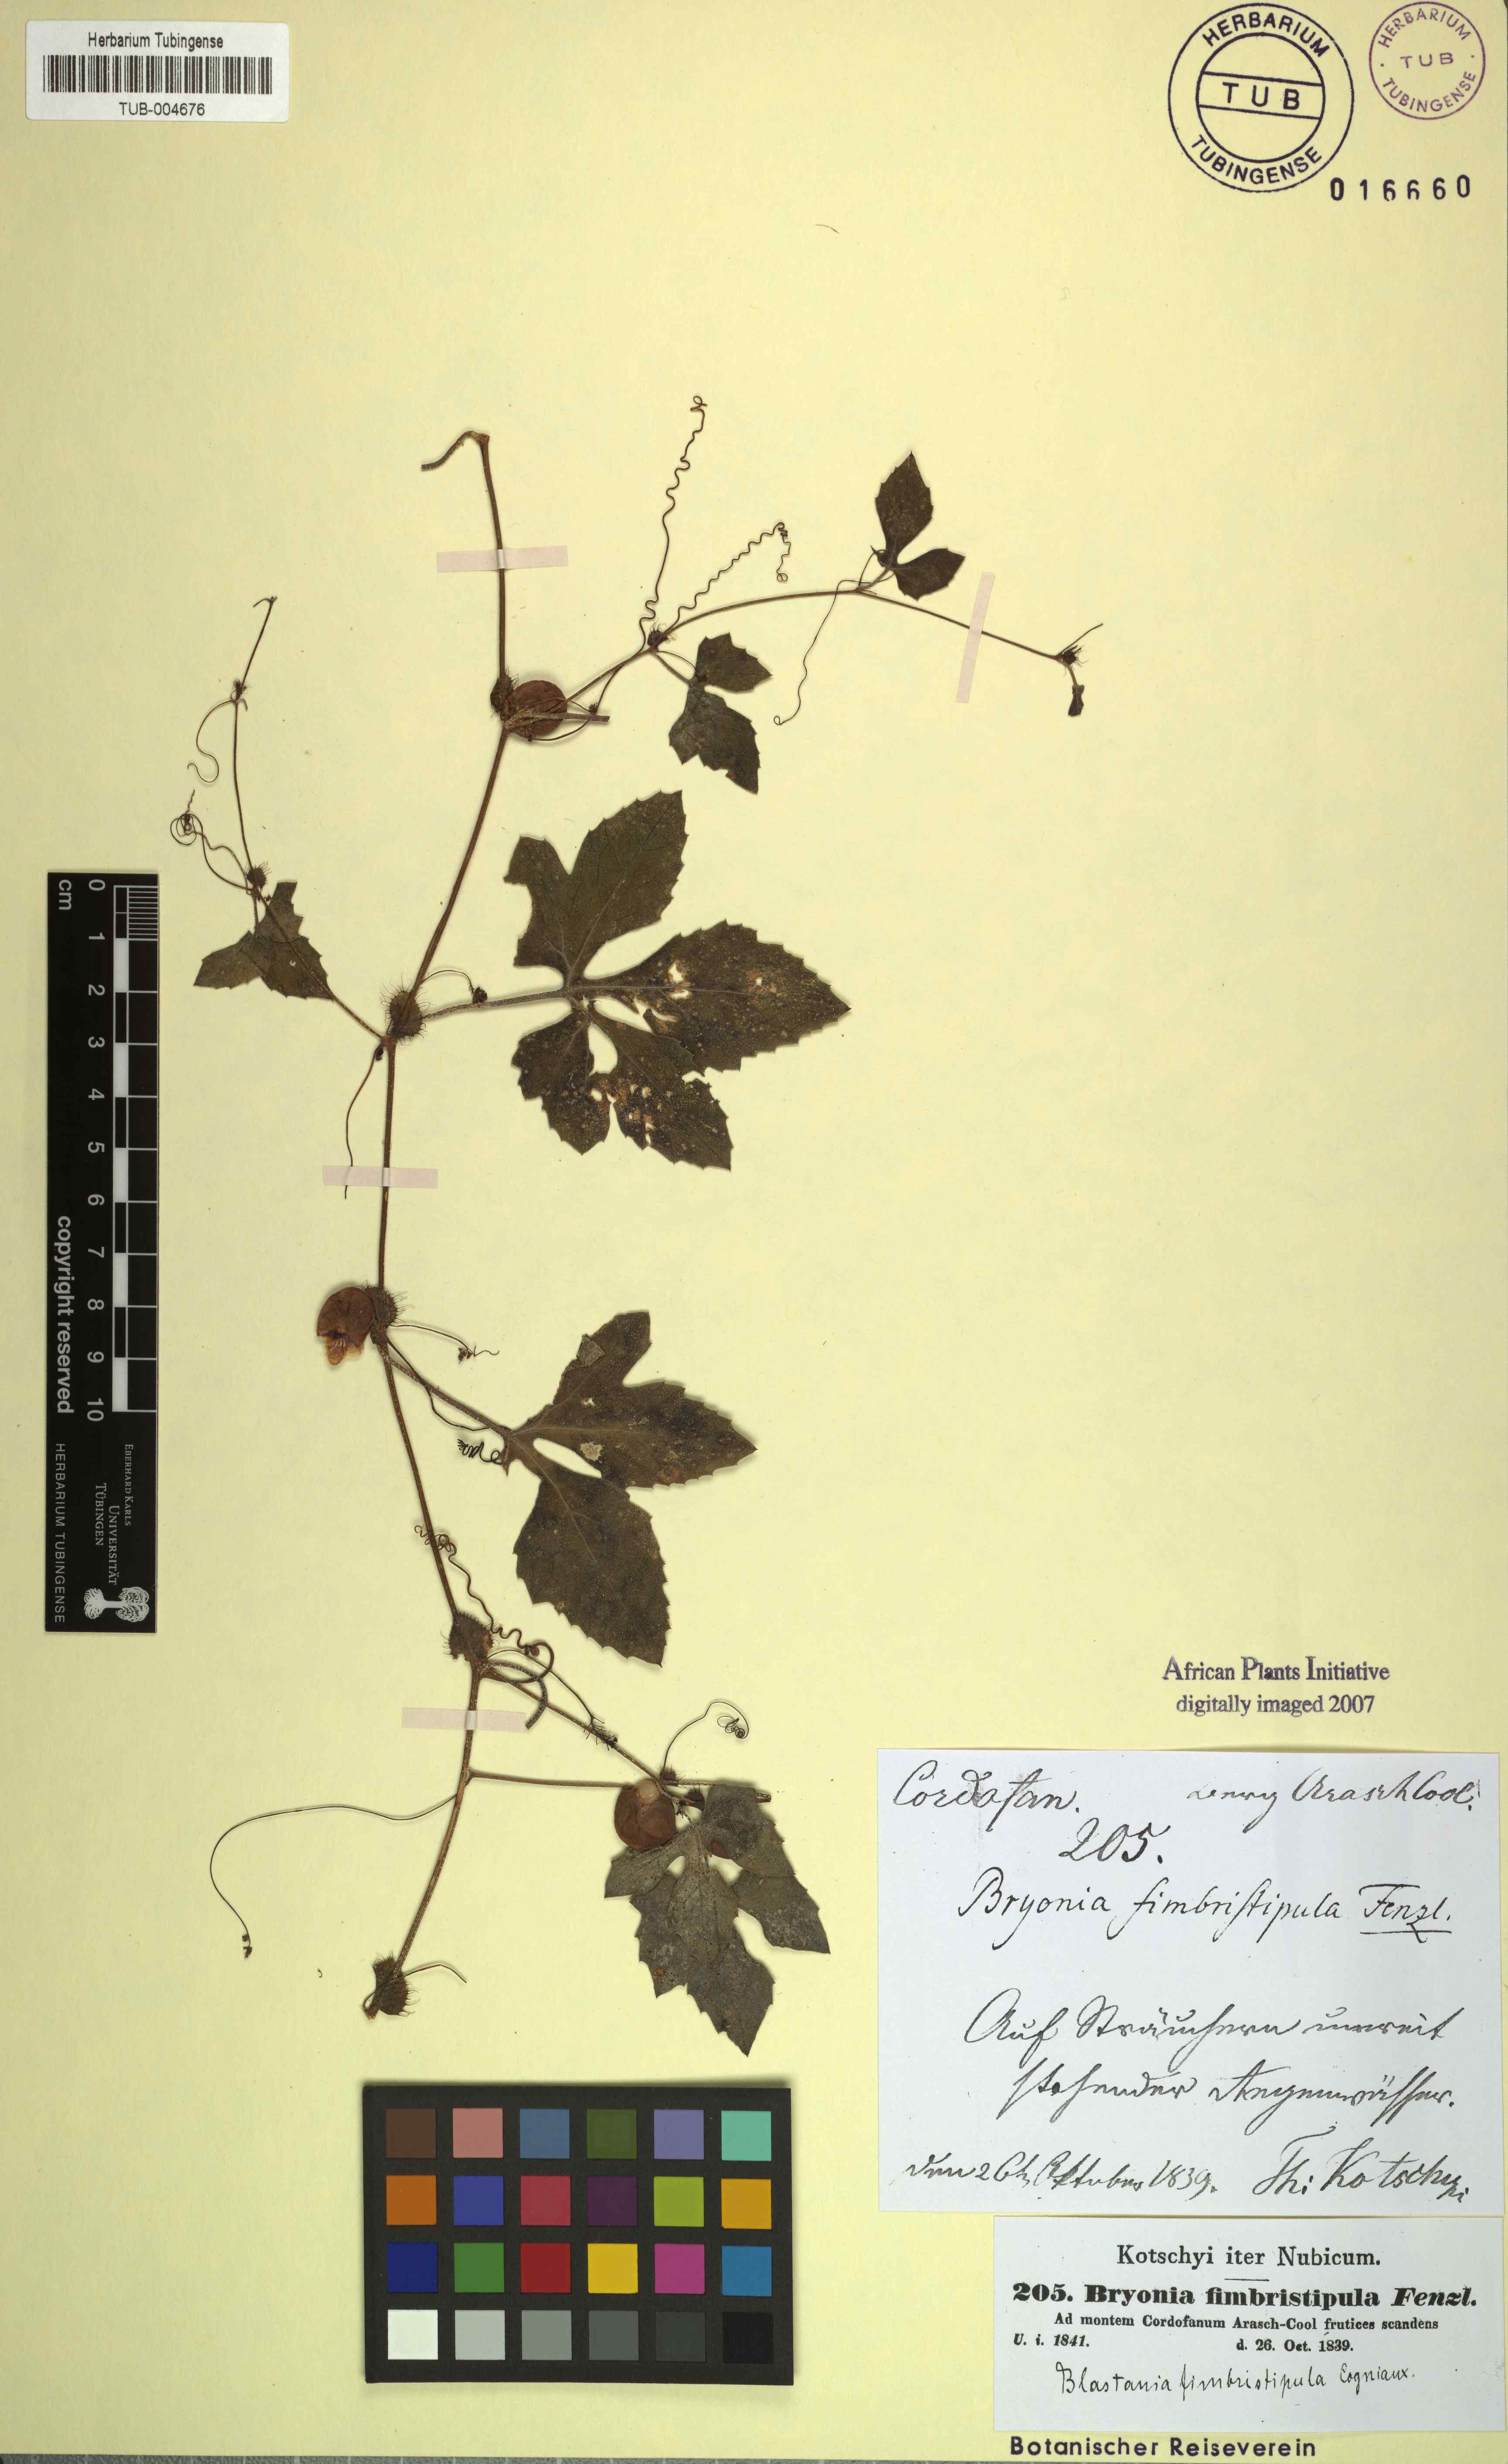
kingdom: Plantae
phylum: Tracheophyta
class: Magnoliopsida
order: Cucurbitales
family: Cucurbitaceae
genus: Blastania
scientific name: Blastania cerasiformis
